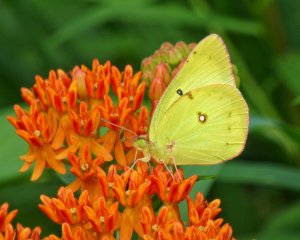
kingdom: Animalia
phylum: Arthropoda
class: Insecta
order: Lepidoptera
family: Pieridae
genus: Colias
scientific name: Colias eurytheme
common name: Orange Sulphur
